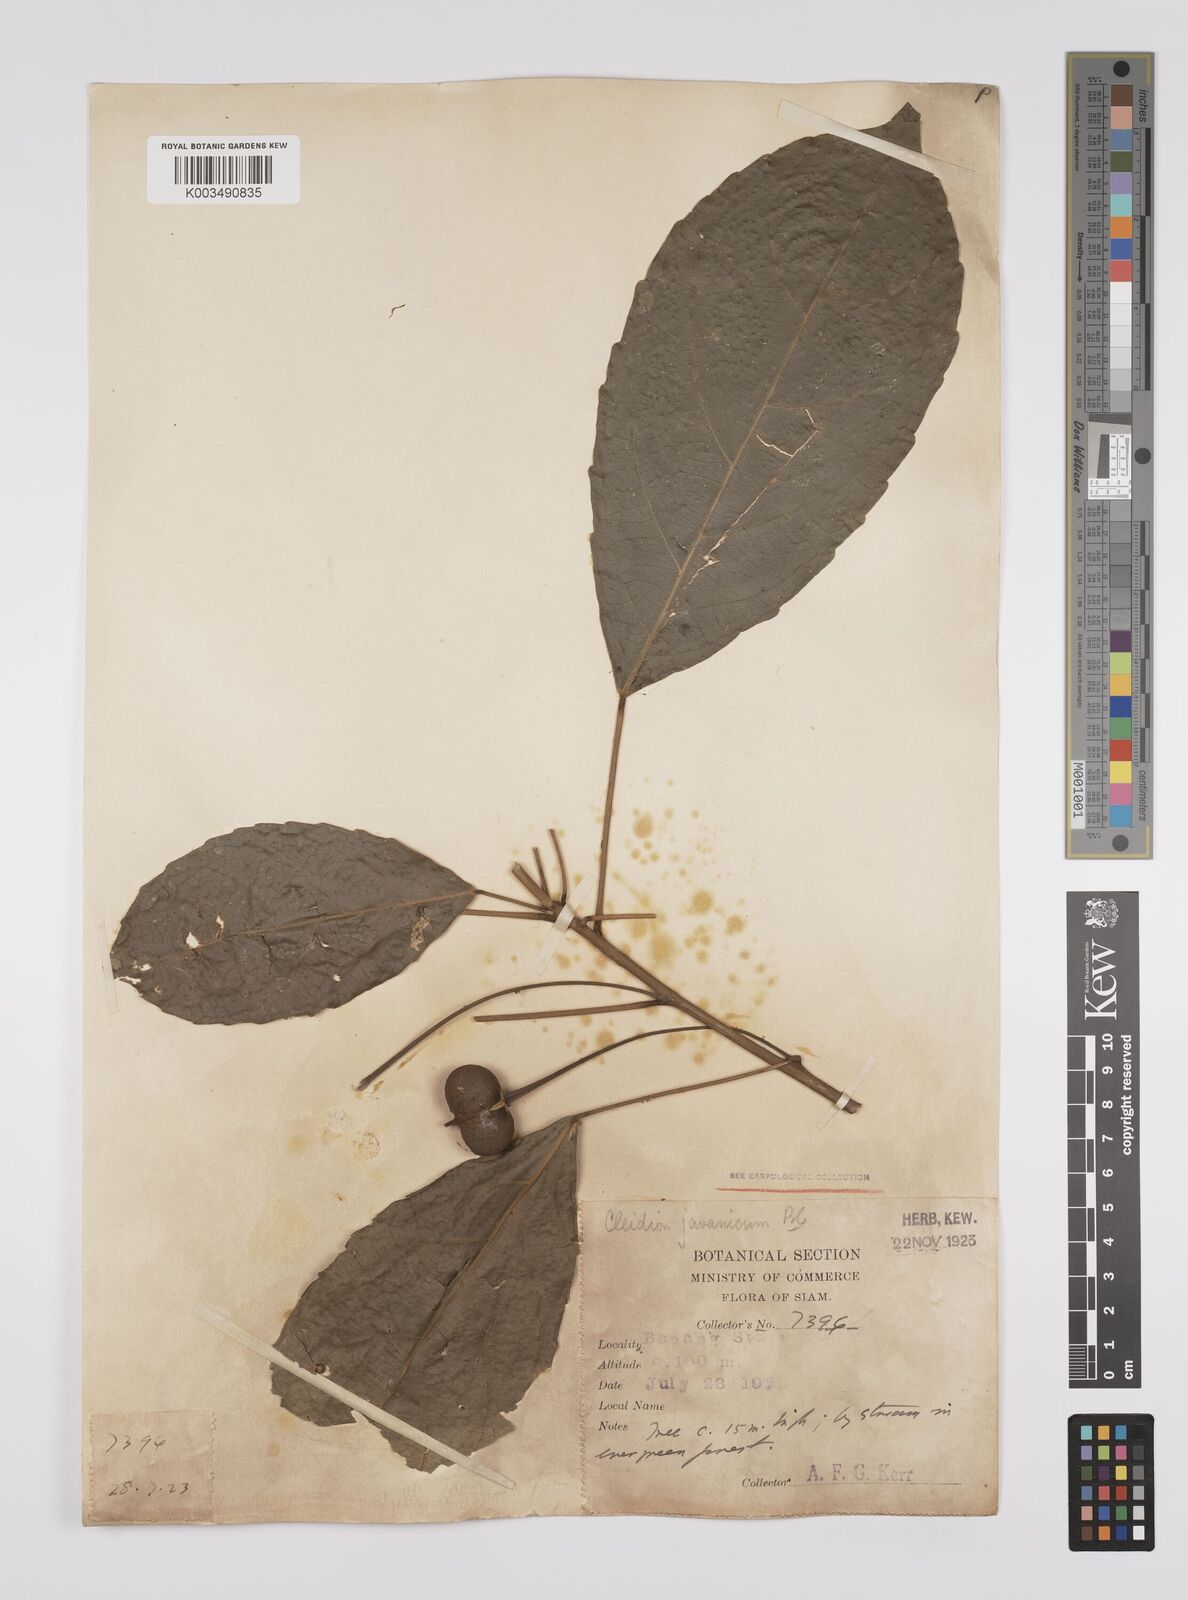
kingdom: Plantae
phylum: Tracheophyta
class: Magnoliopsida
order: Malpighiales
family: Euphorbiaceae
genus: Acalypha
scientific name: Acalypha spiciflora
